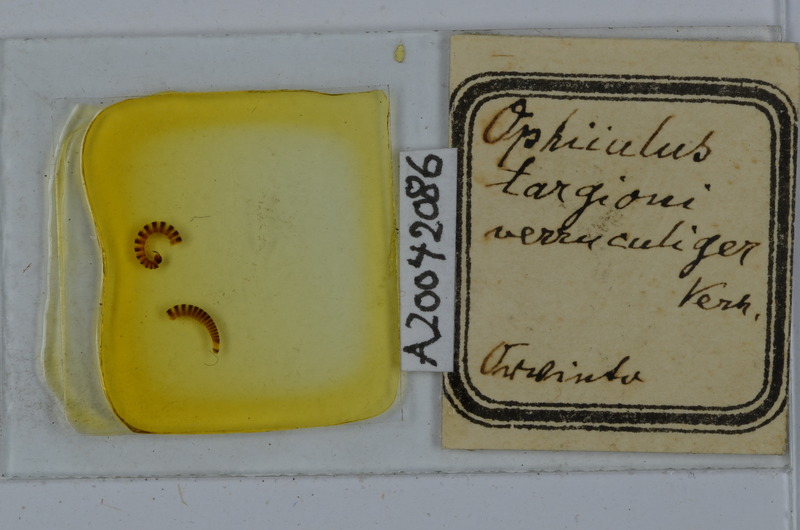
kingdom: Animalia
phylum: Arthropoda
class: Diplopoda
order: Julida
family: Julidae
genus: Ophyiulus
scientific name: Ophyiulus targionii
